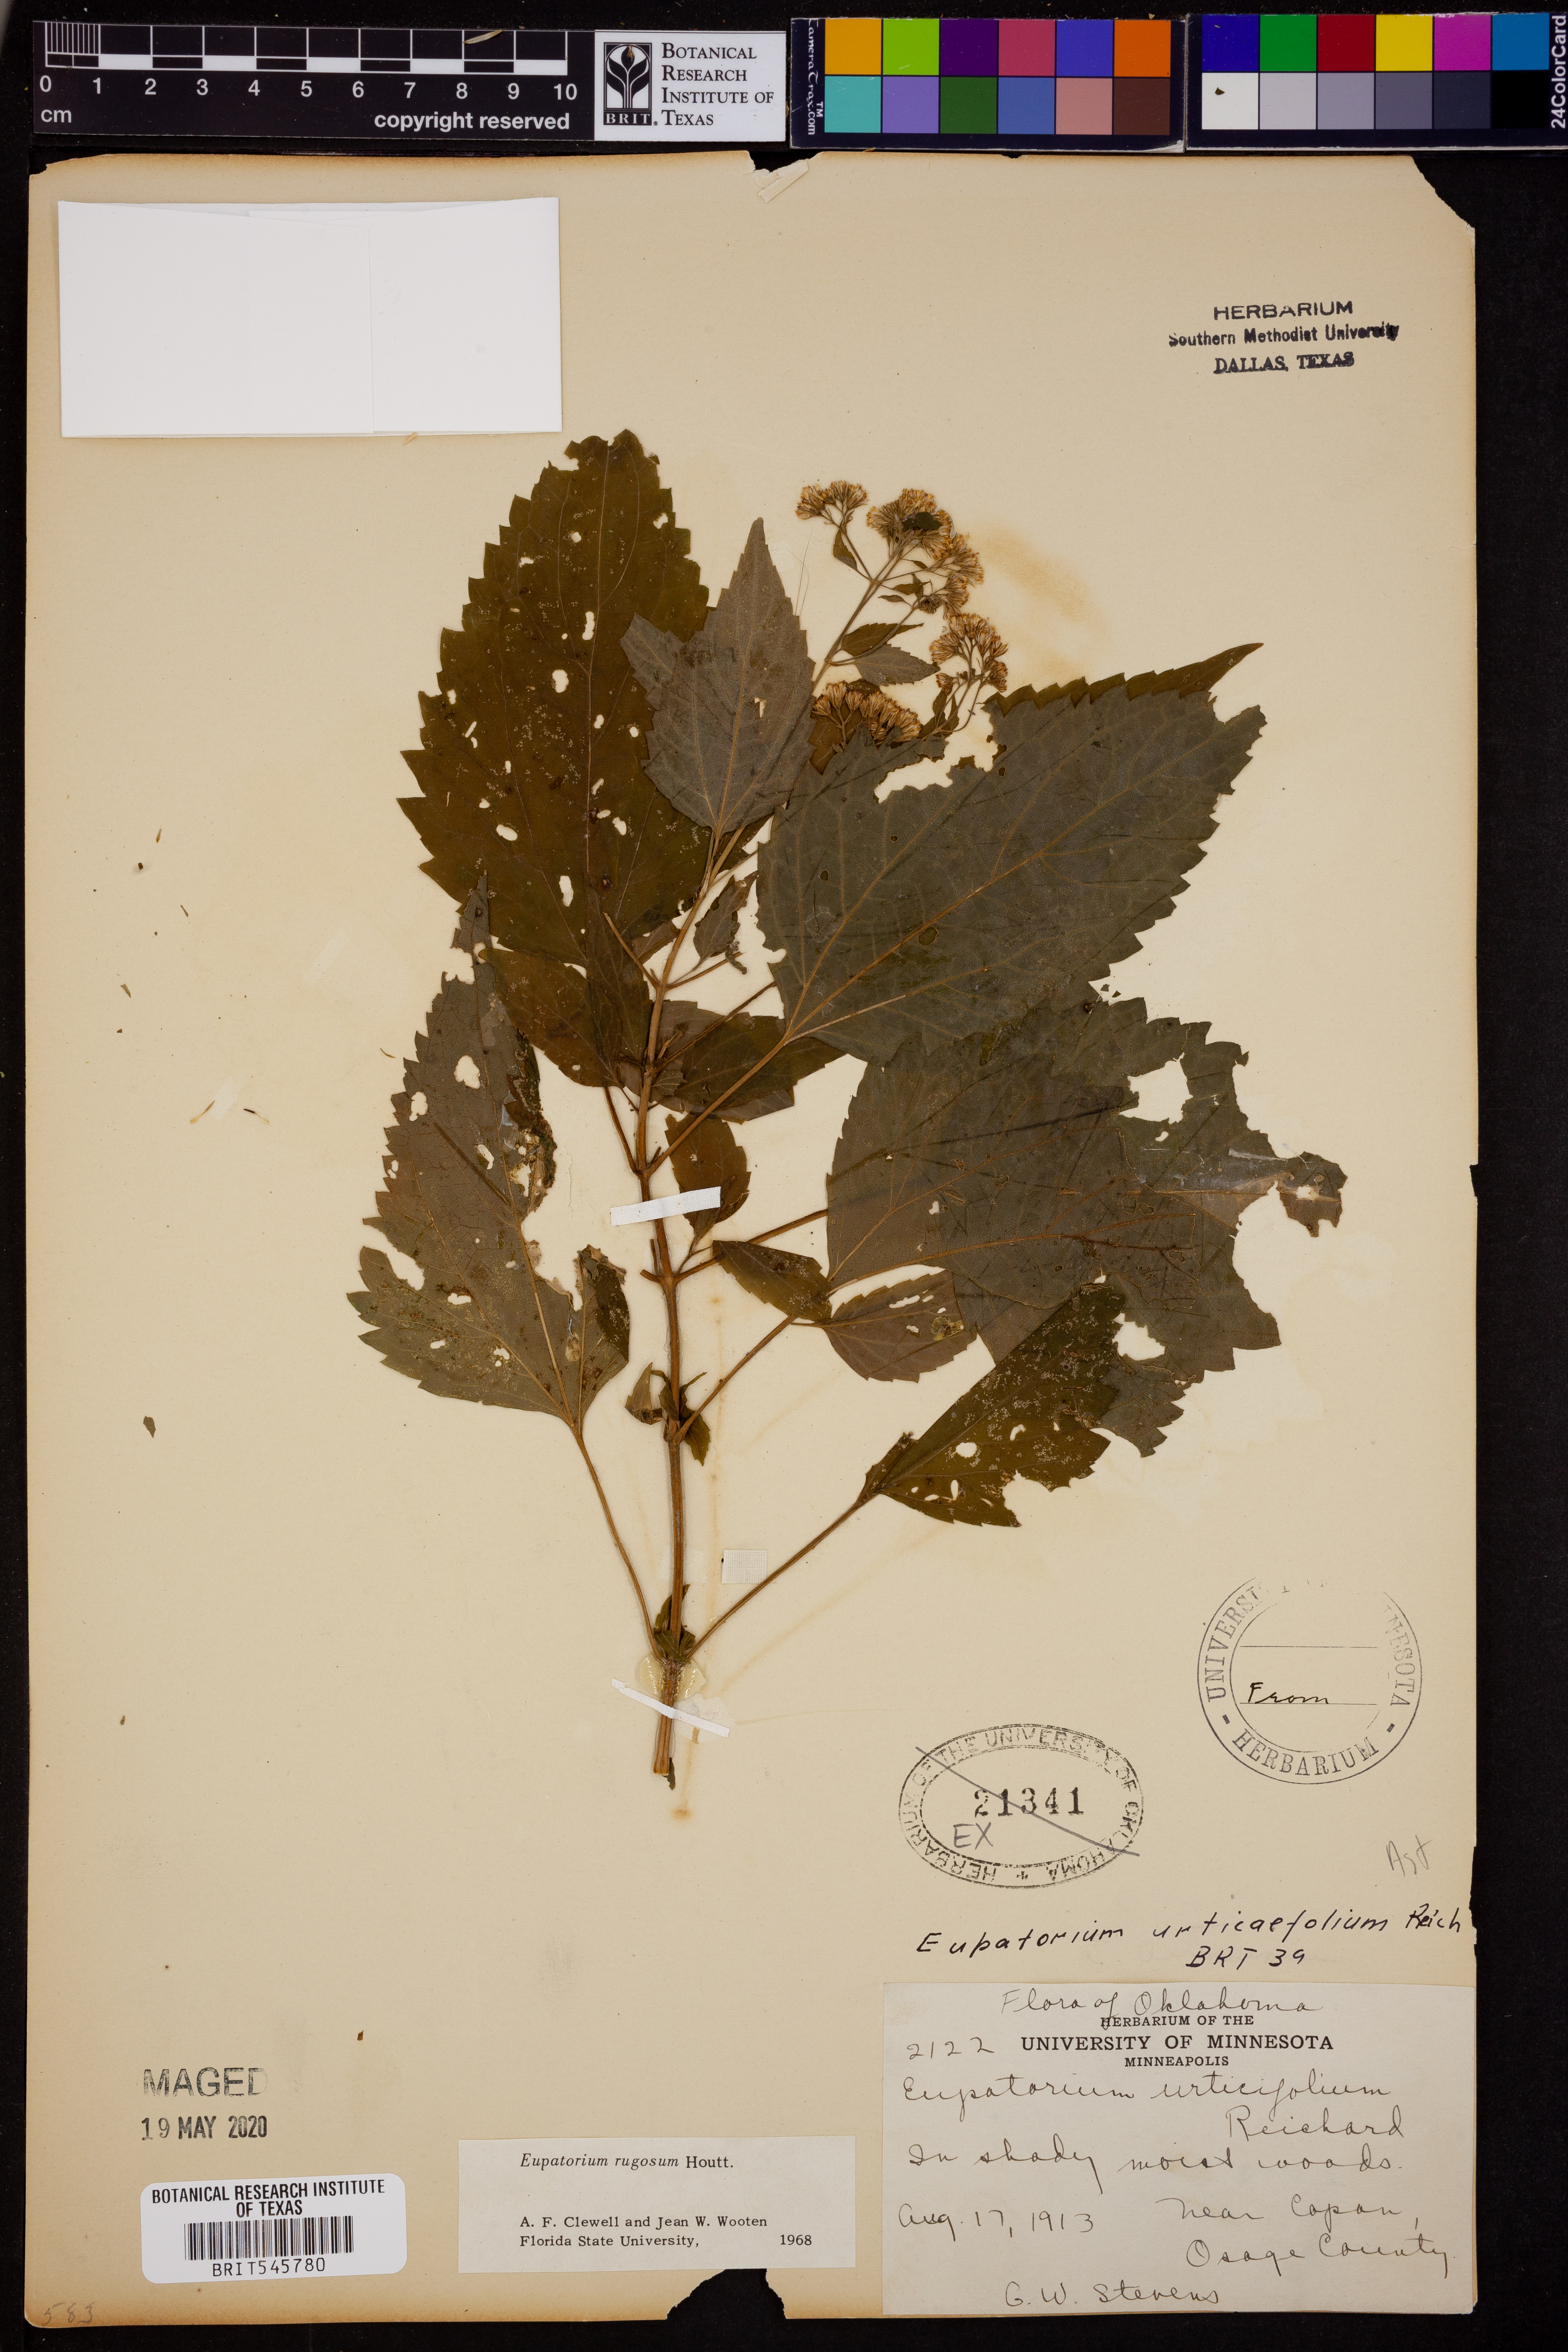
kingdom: Plantae
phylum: Tracheophyta
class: Magnoliopsida
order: Asterales
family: Asteraceae
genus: Cronquistianthus
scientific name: Cronquistianthus bulliferus
